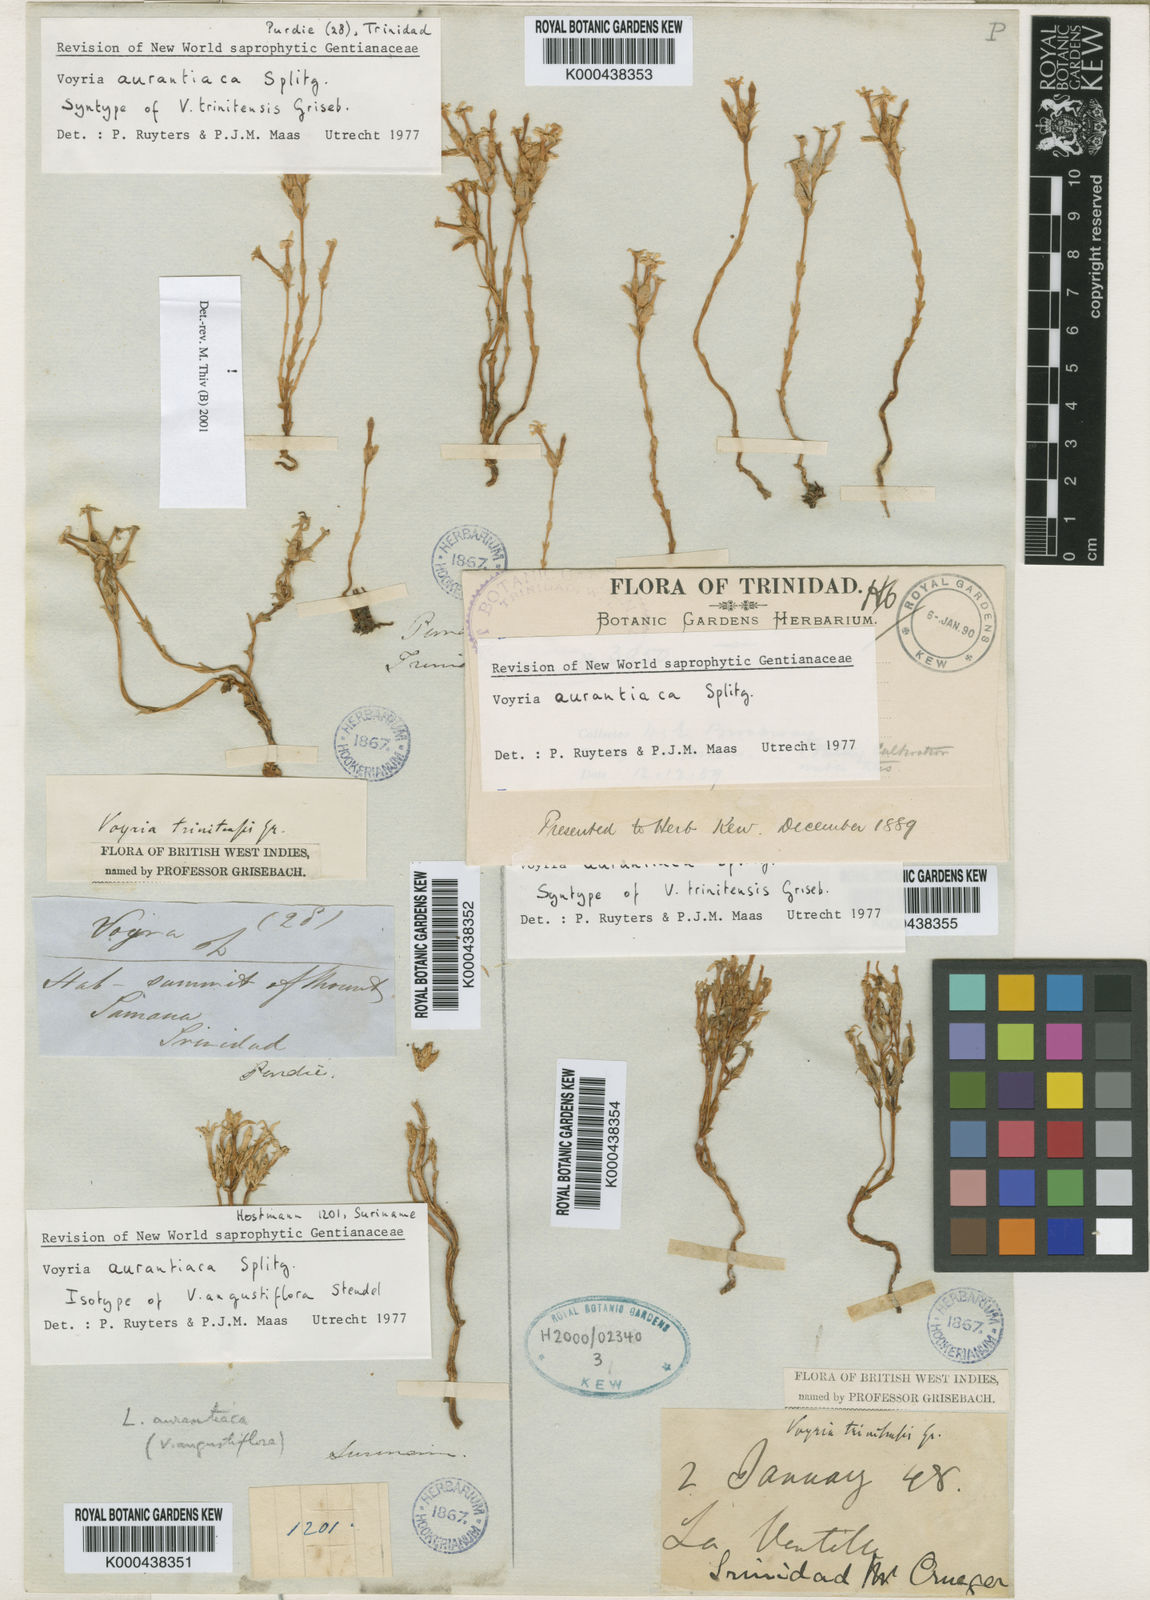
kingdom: Plantae
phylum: Tracheophyta
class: Magnoliopsida
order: Gentianales
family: Gentianaceae
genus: Voyria
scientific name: Voyria aurantiaca
